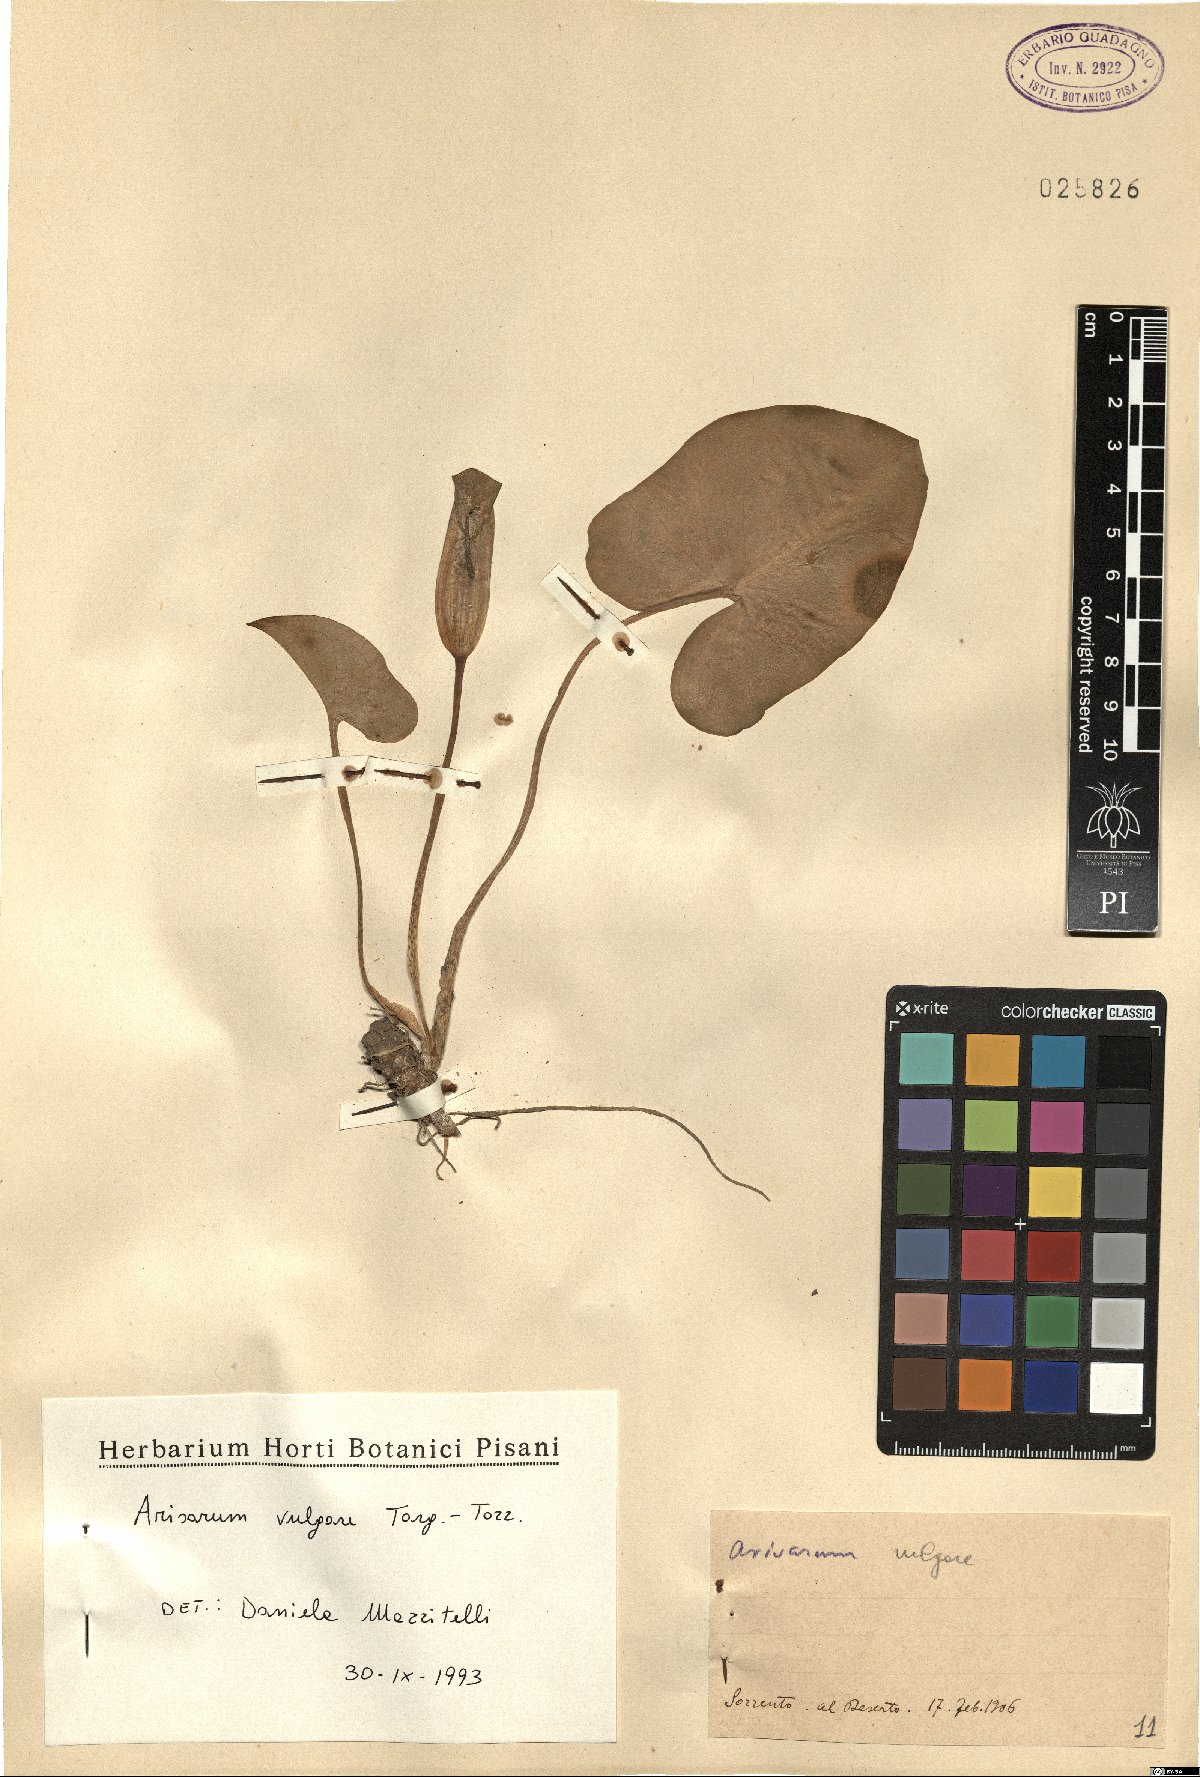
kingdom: Plantae
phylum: Tracheophyta
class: Liliopsida
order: Alismatales
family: Araceae
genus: Arisarum
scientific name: Arisarum vulgare
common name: Common arisarum
